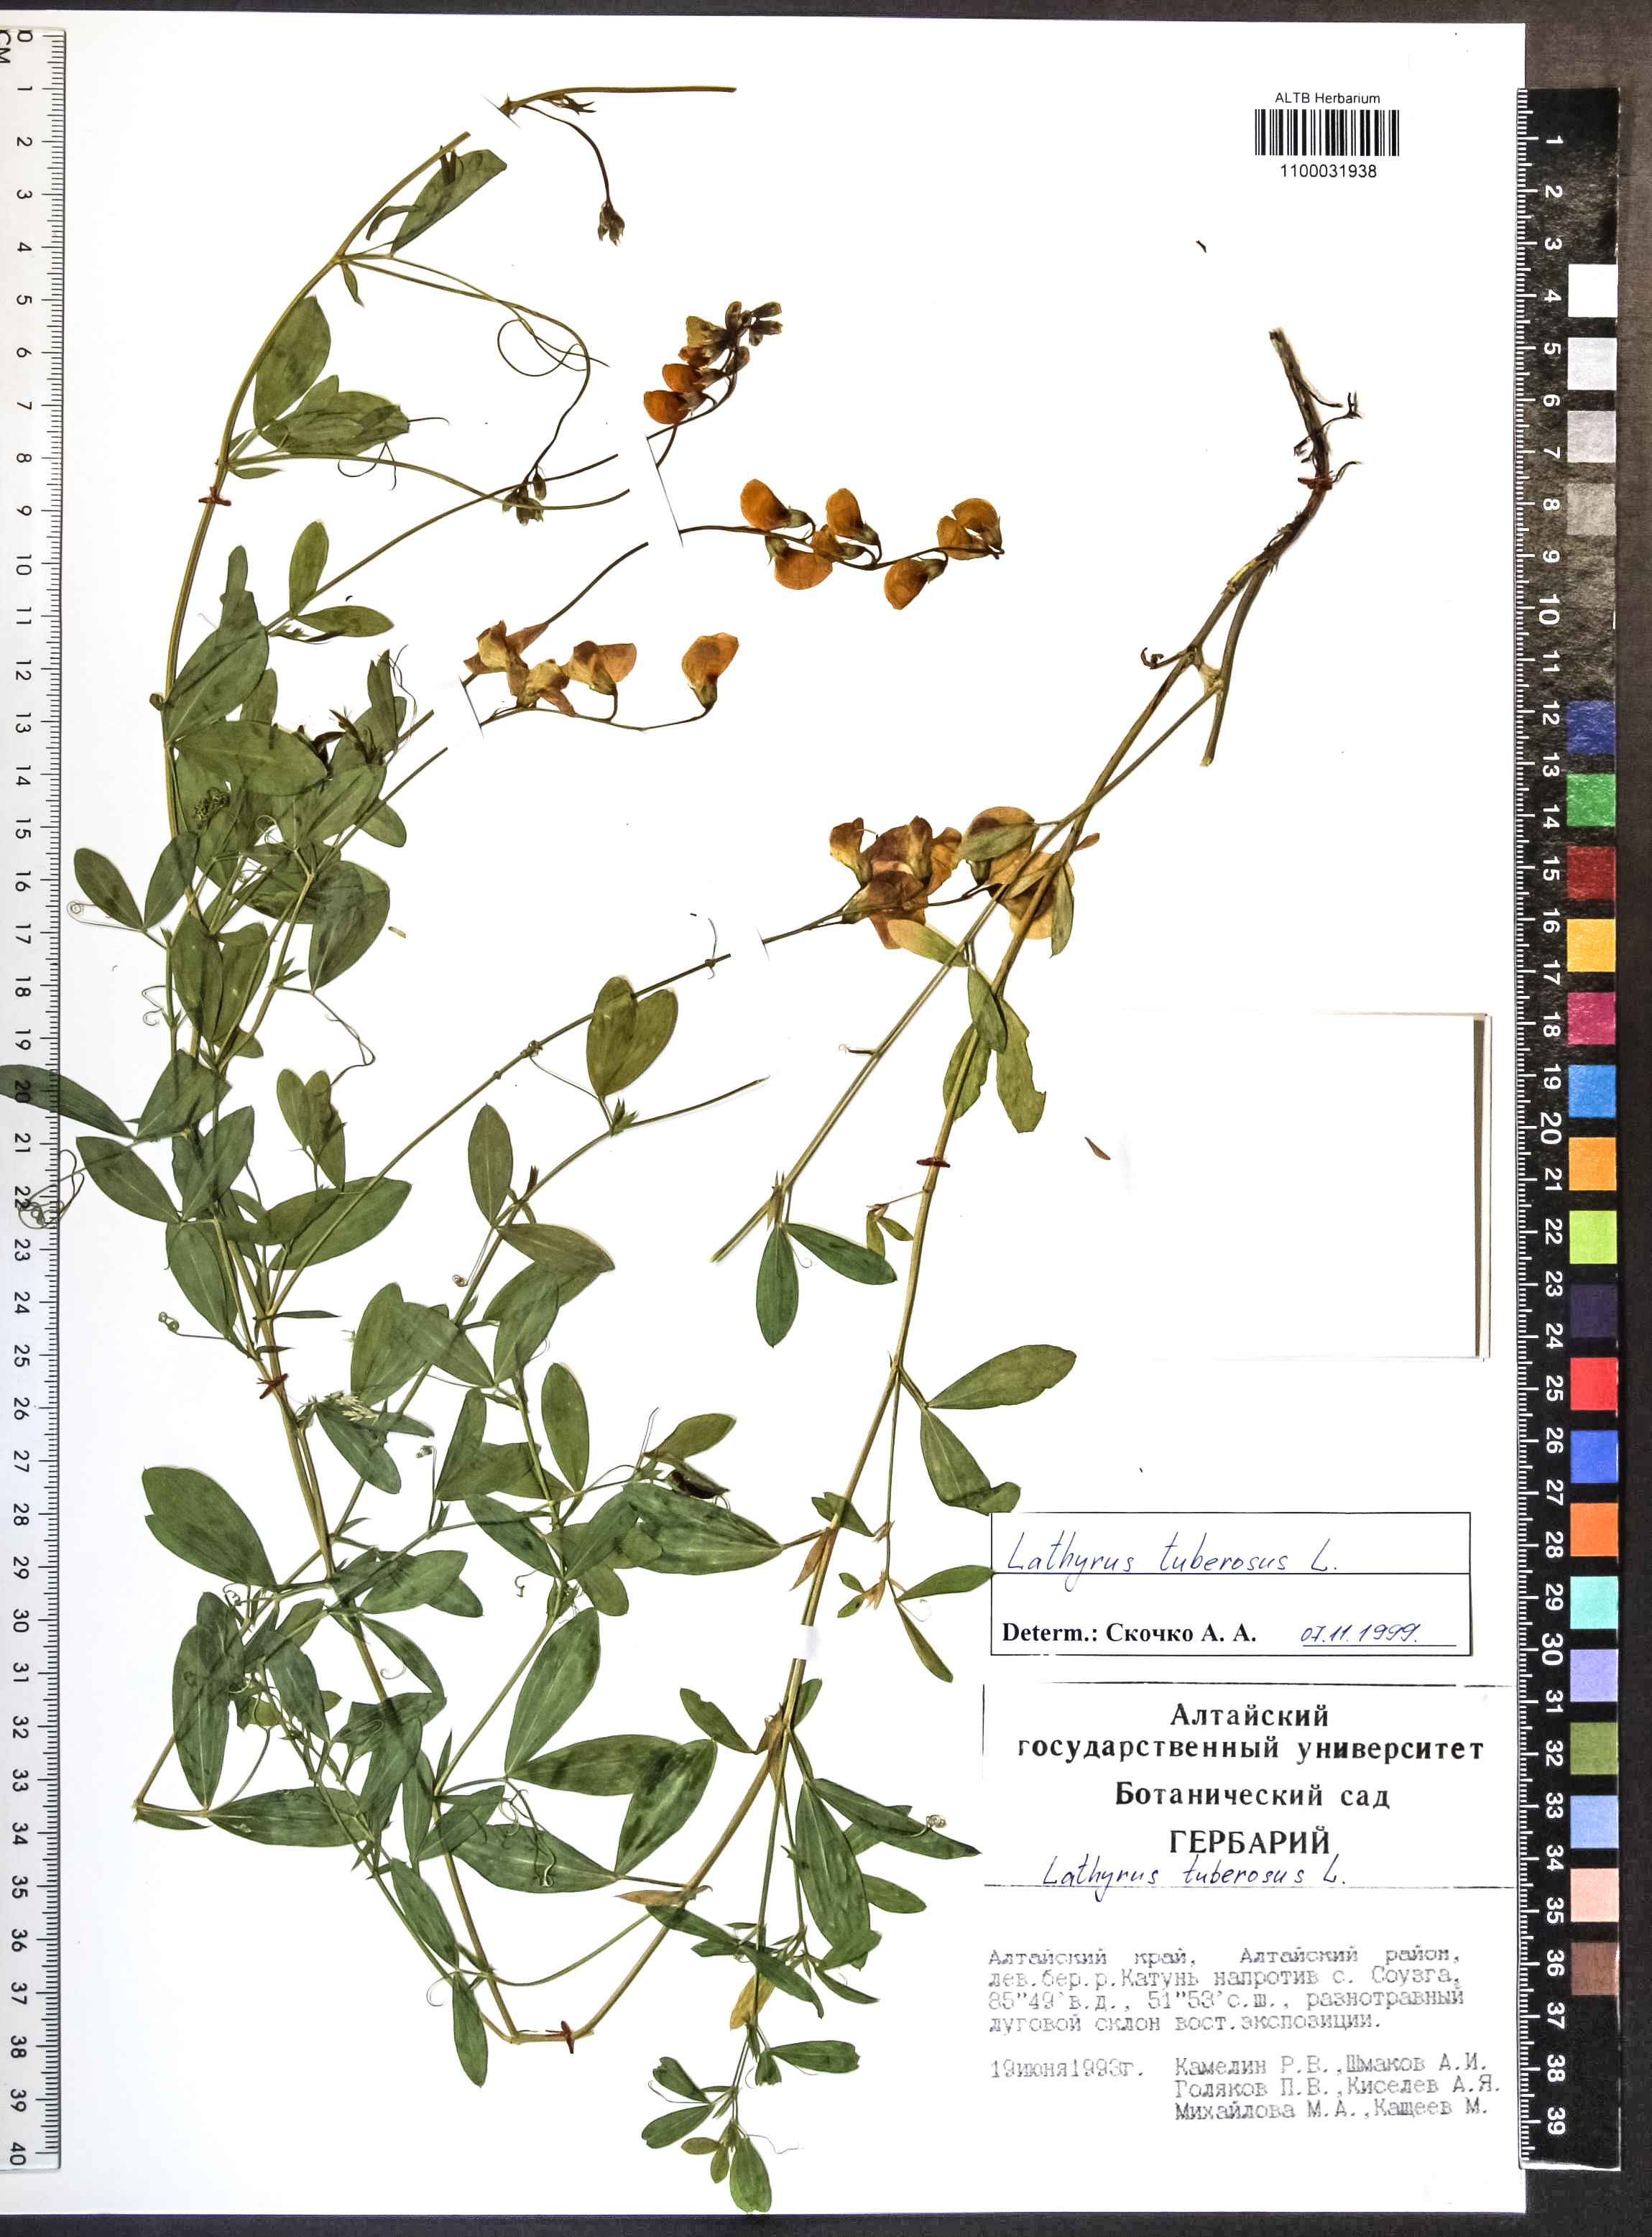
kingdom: Plantae
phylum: Tracheophyta
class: Magnoliopsida
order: Fabales
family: Fabaceae
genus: Lathyrus
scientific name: Lathyrus tuberosus
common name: Tuberous pea
